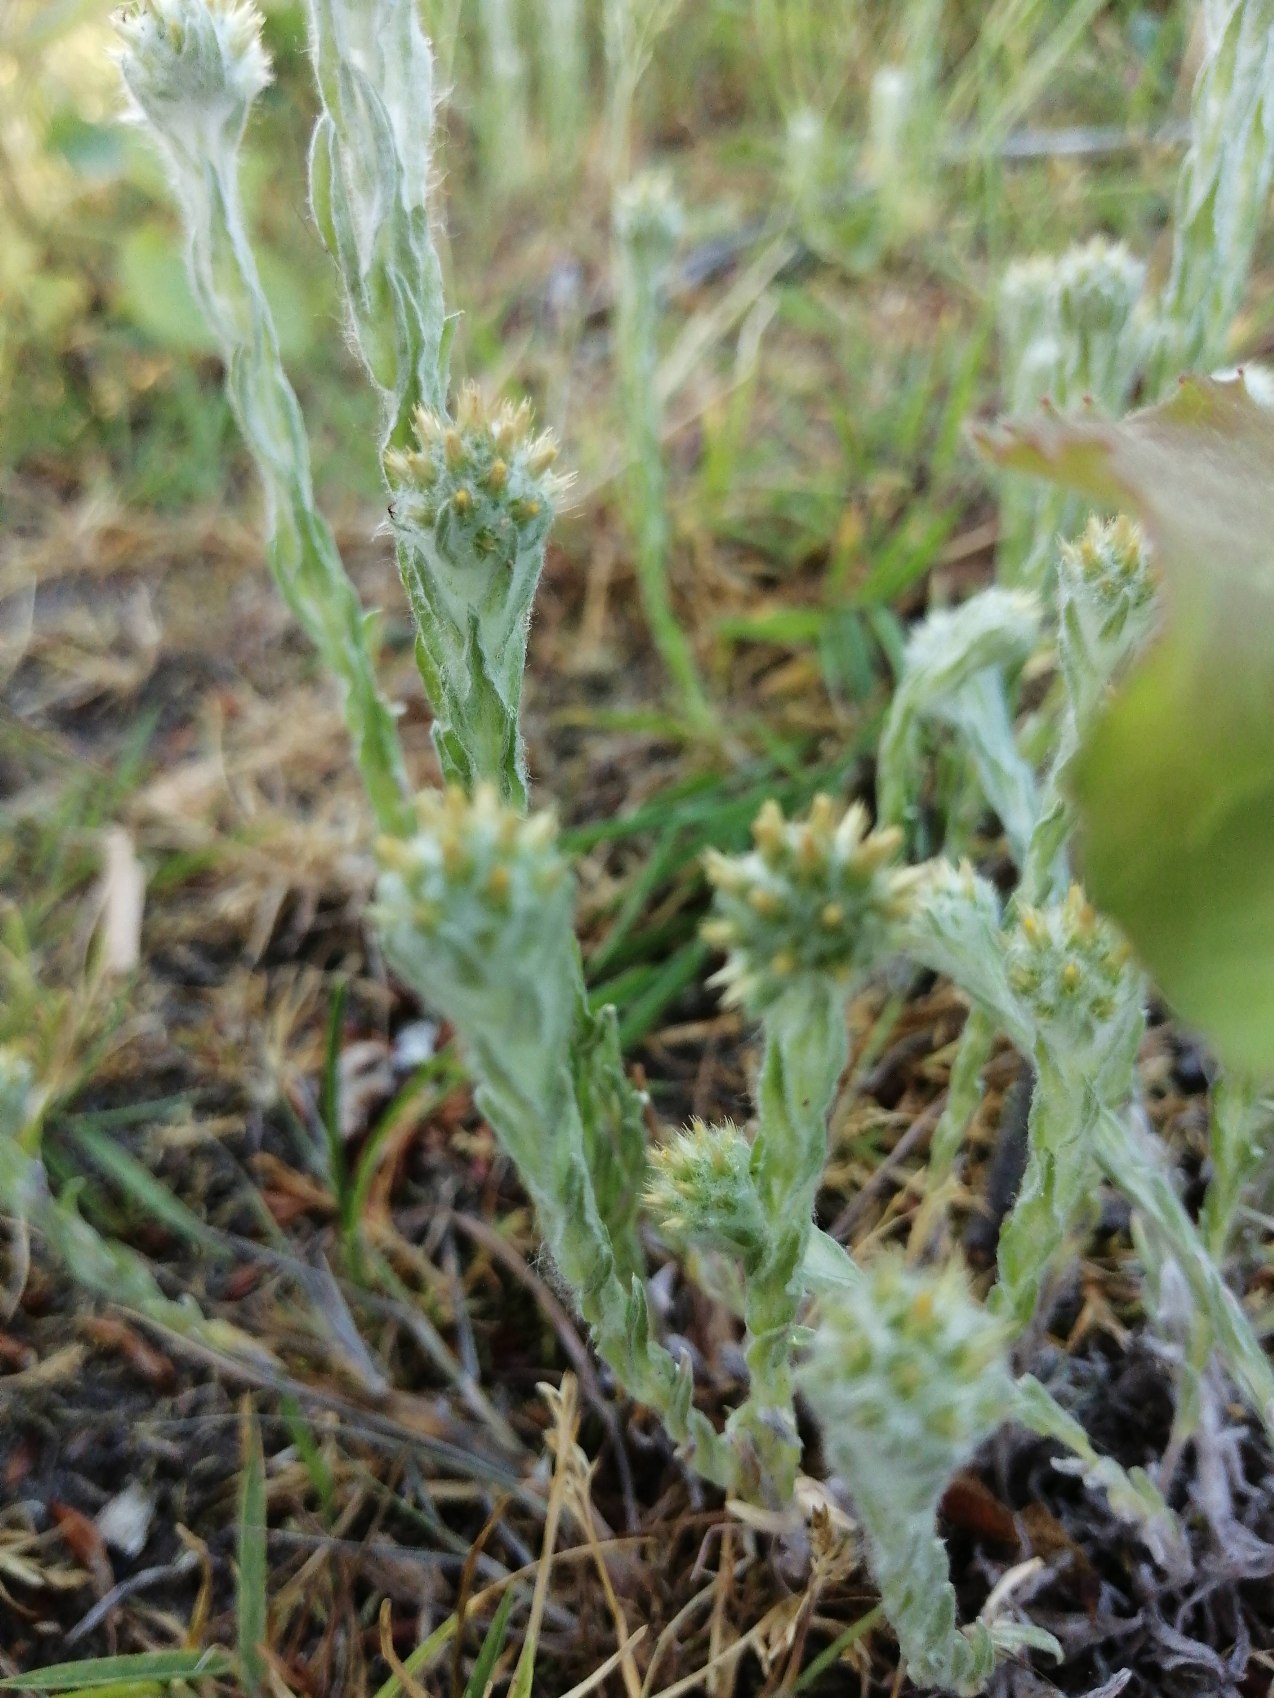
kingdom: Plantae
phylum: Tracheophyta
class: Magnoliopsida
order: Asterales
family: Asteraceae
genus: Filago
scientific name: Filago germanica
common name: Kugle-museurt
